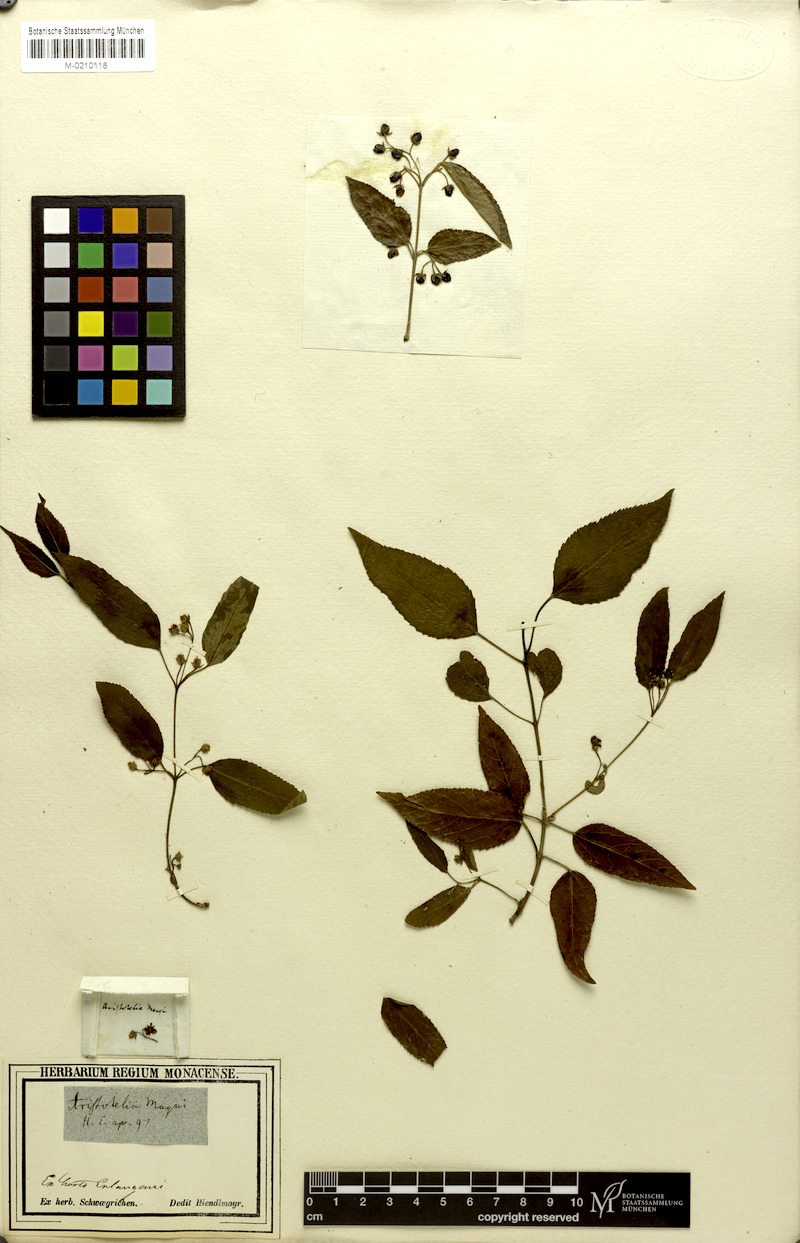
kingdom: Plantae
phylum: Tracheophyta
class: Magnoliopsida
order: Oxalidales
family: Elaeocarpaceae
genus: Aristotelia
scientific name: Aristotelia chilensis
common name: Maquei
